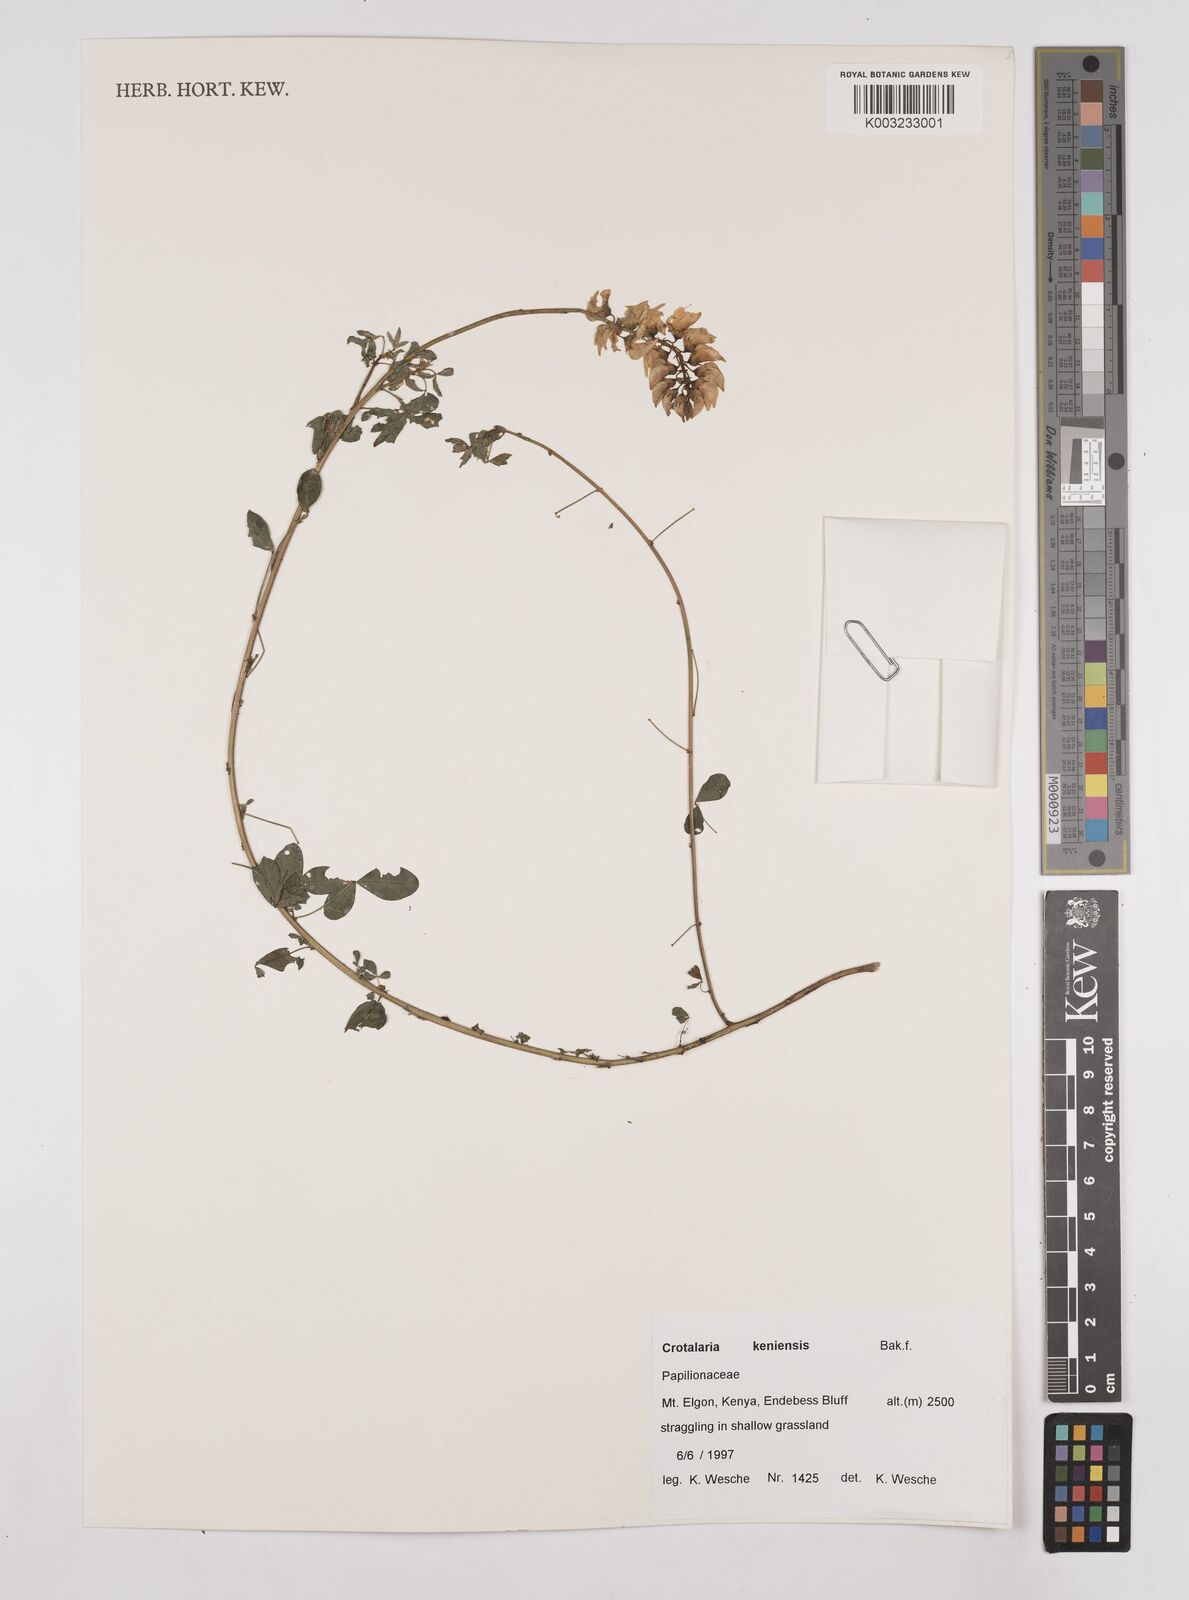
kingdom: Plantae
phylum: Tracheophyta
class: Magnoliopsida
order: Fabales
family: Fabaceae
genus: Crotalaria
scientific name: Crotalaria keniensis
